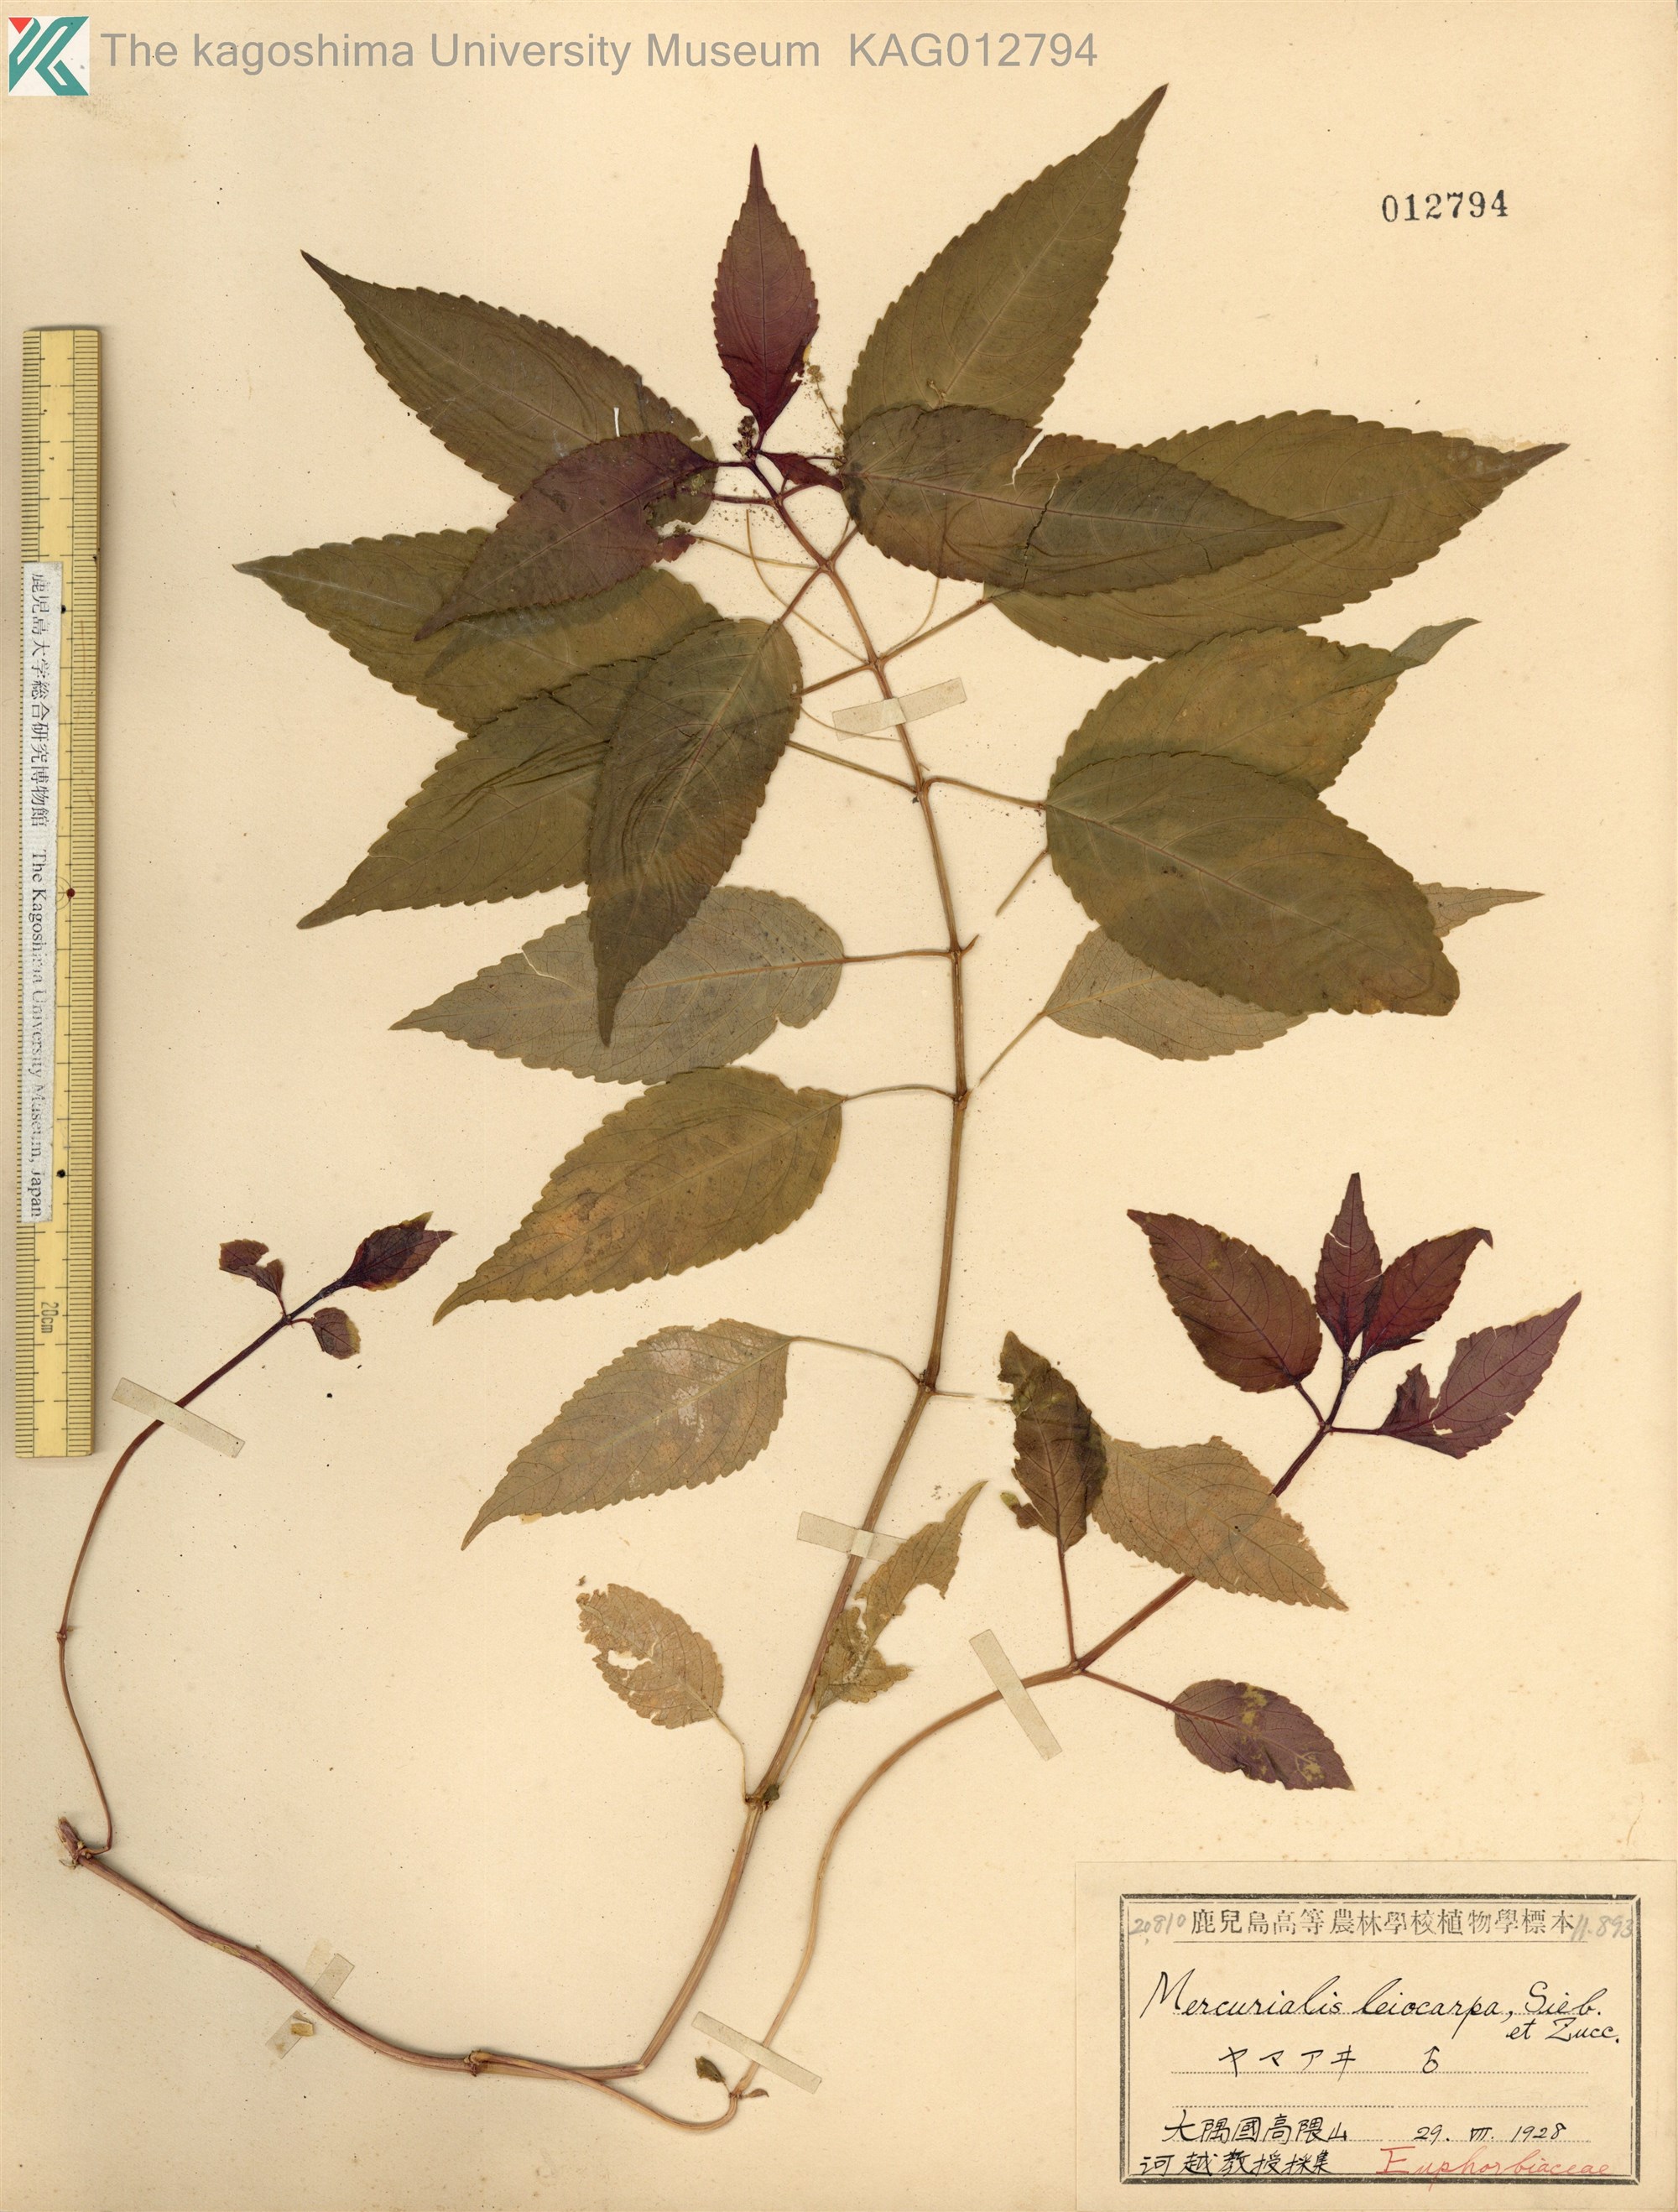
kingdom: Plantae
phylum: Tracheophyta
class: Magnoliopsida
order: Malpighiales
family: Euphorbiaceae
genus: Mercurialis
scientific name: Mercurialis leiocarpa
